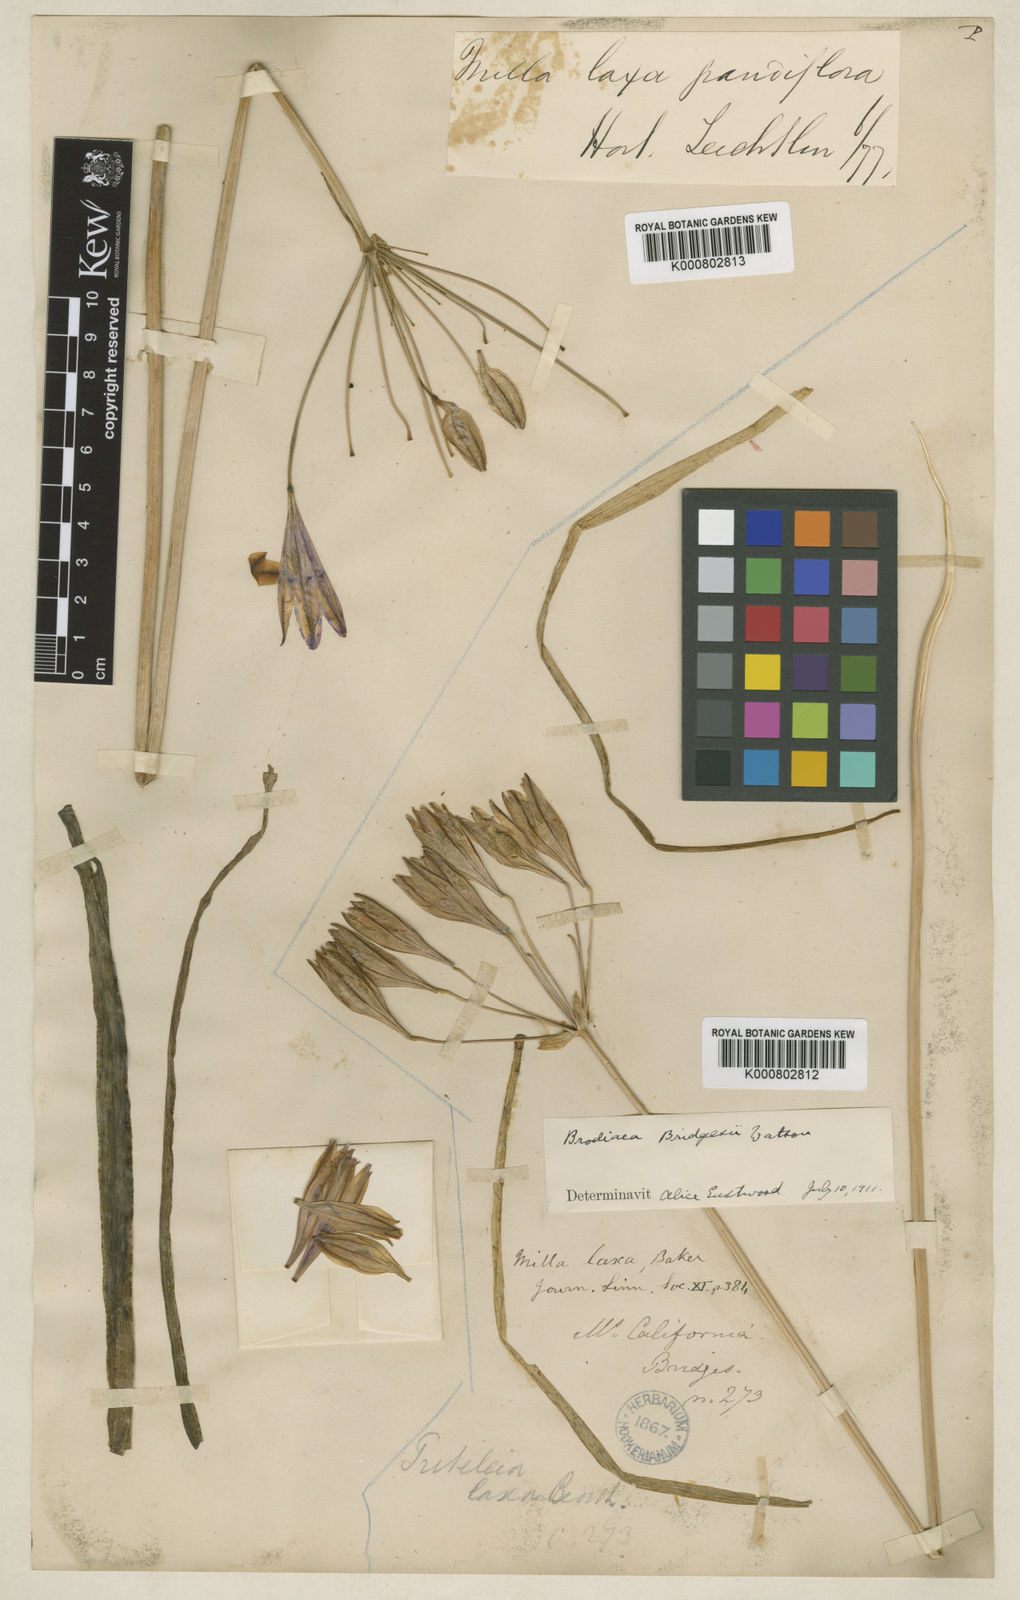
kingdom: Plantae
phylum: Tracheophyta
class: Liliopsida
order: Asparagales
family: Asparagaceae
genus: Triteleia
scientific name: Triteleia bridgesii
